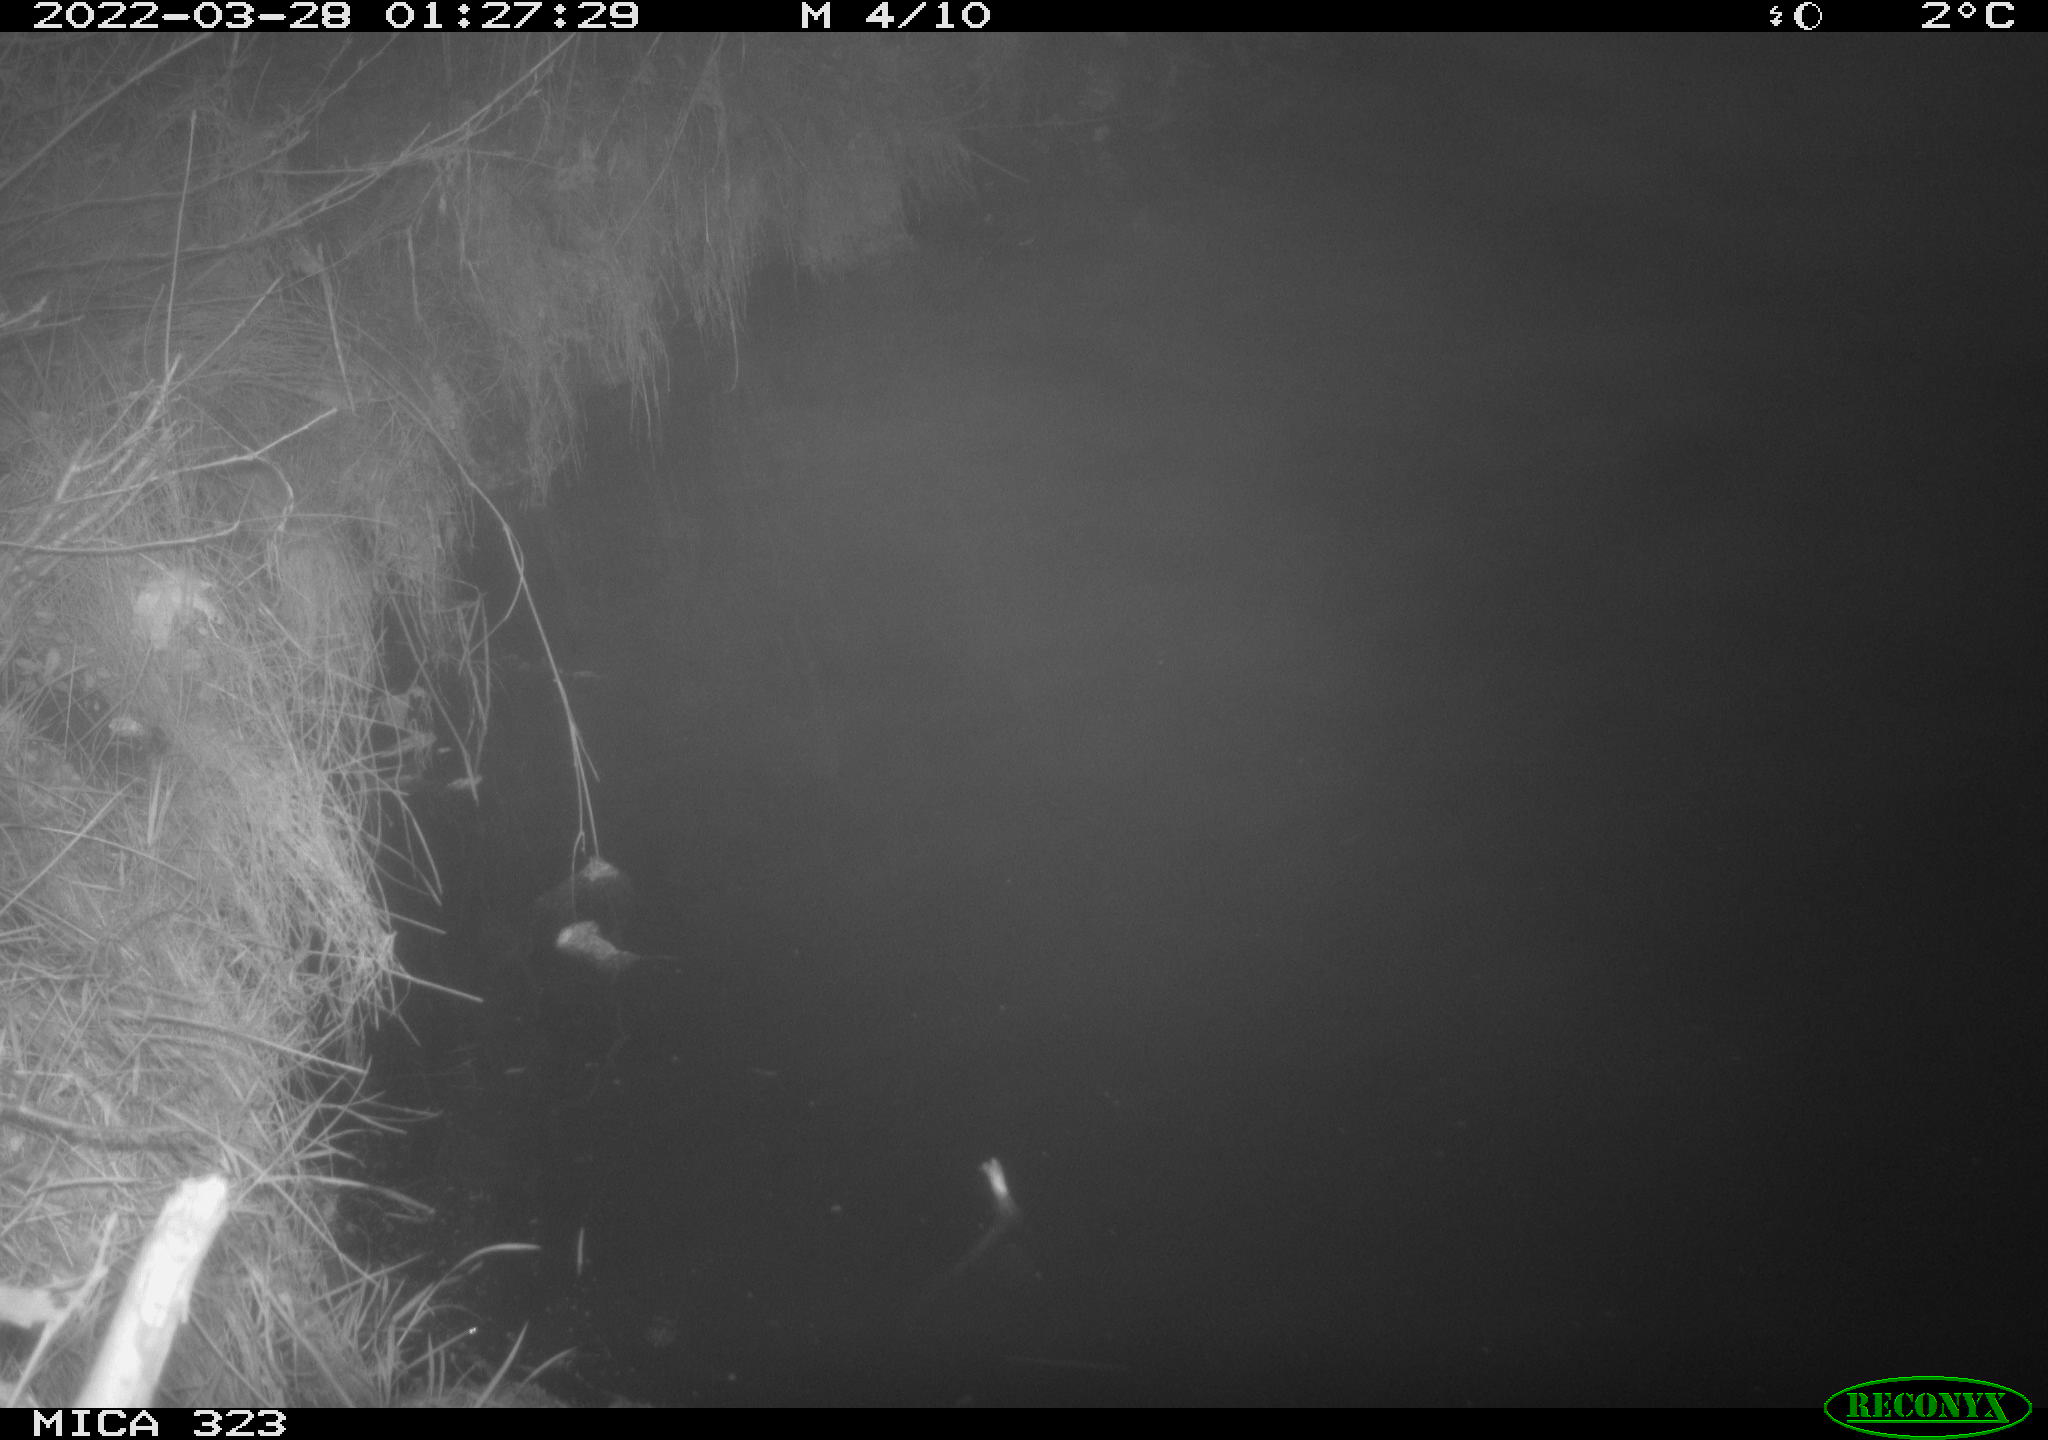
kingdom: Animalia
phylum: Chordata
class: Aves
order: Anseriformes
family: Anatidae
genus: Anas
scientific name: Anas
